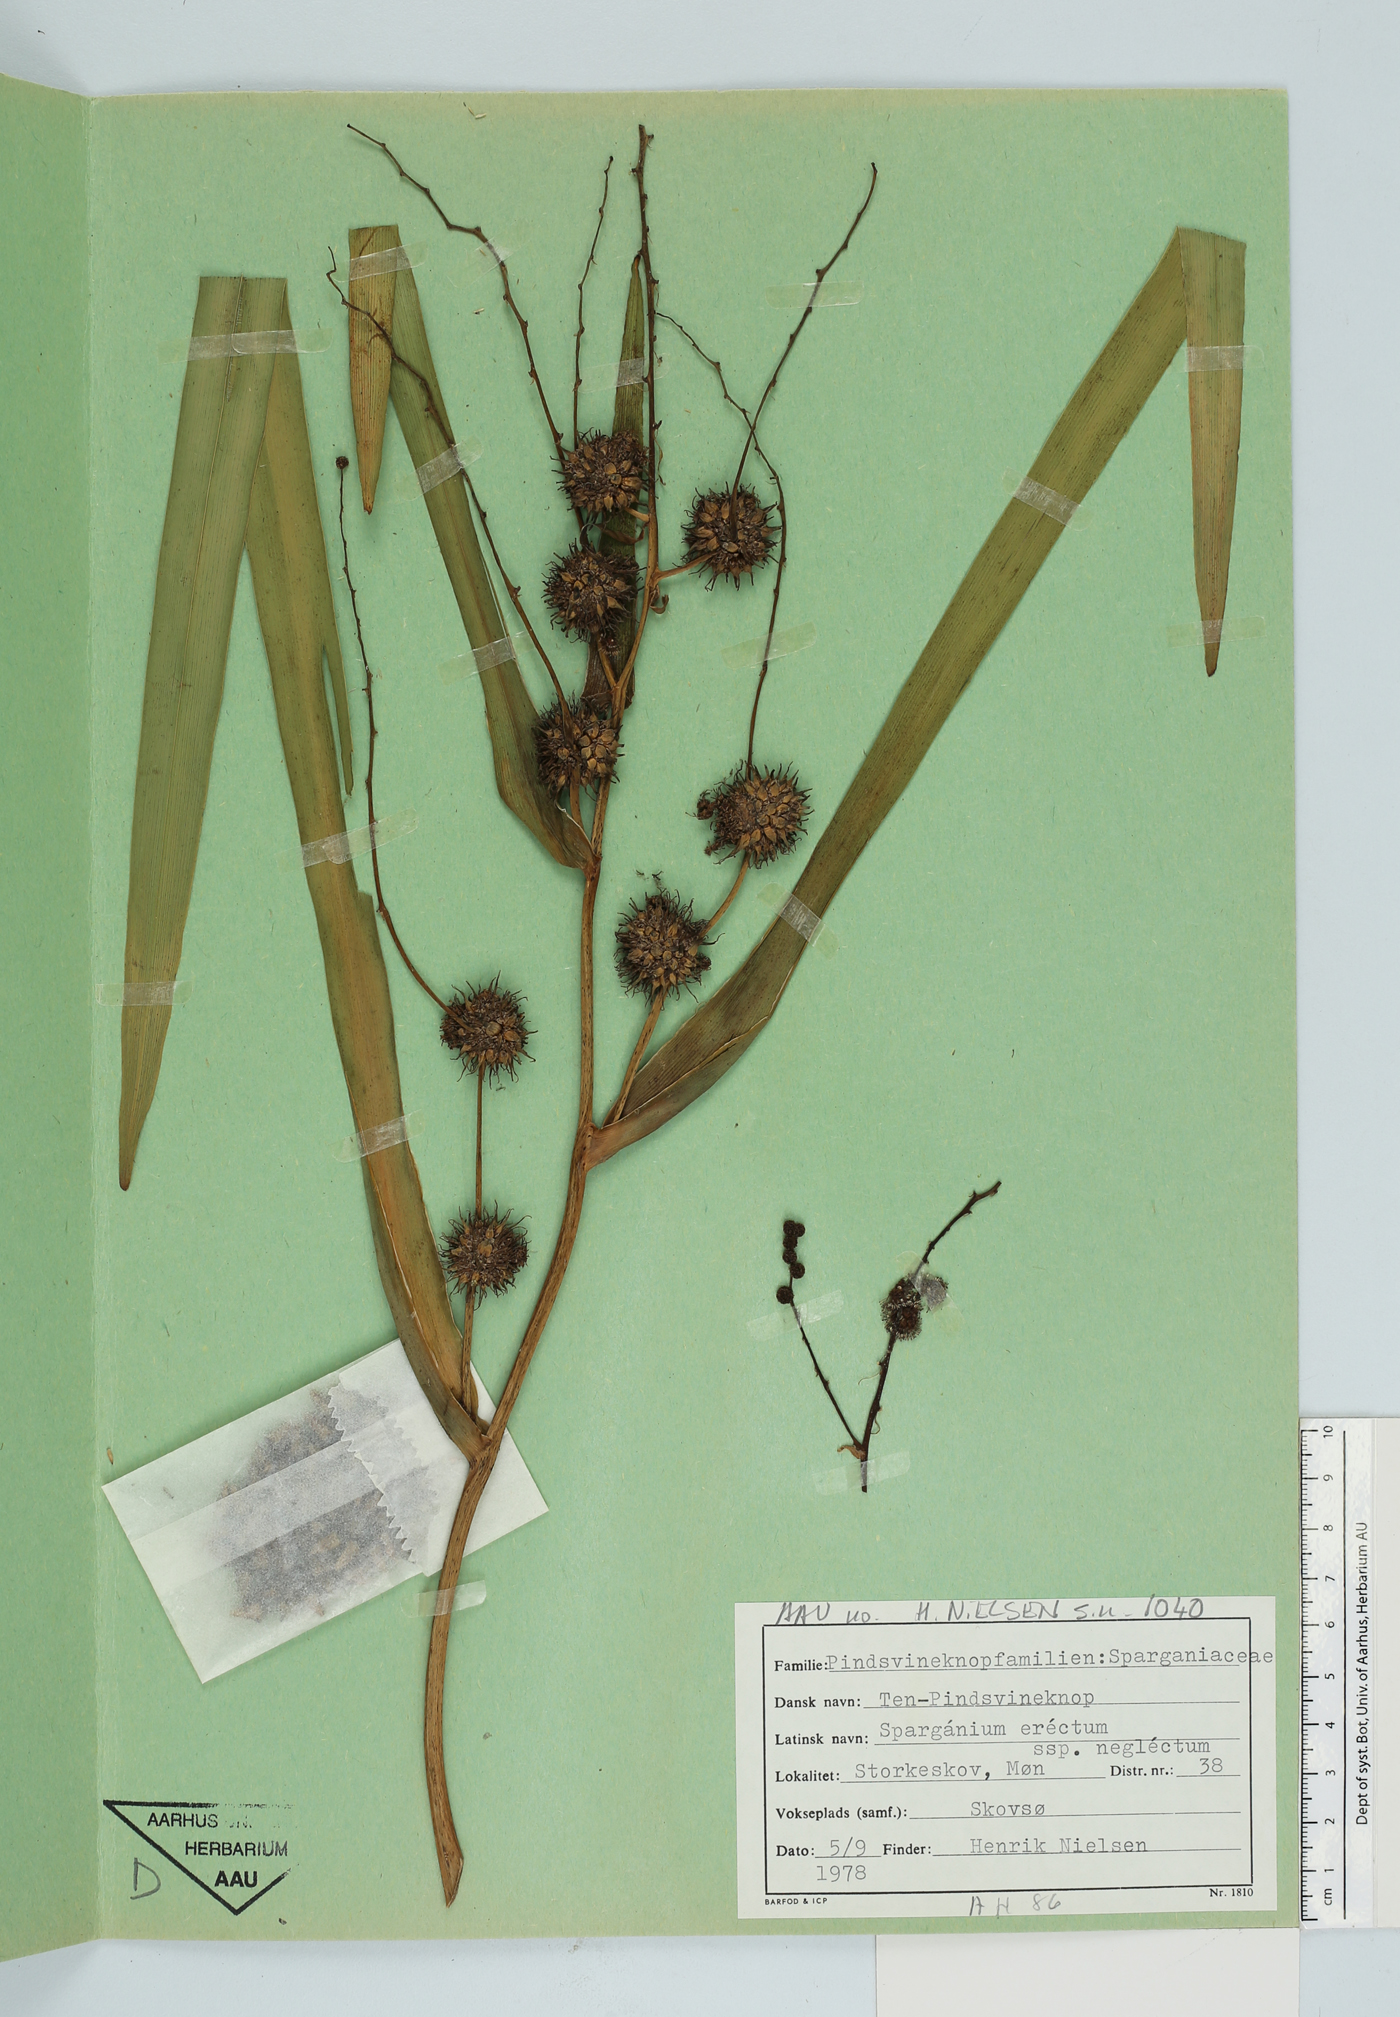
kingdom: Plantae
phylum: Tracheophyta
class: Liliopsida
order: Poales
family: Typhaceae
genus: Sparganium
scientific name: Sparganium erectum
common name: Branched bur-reed
